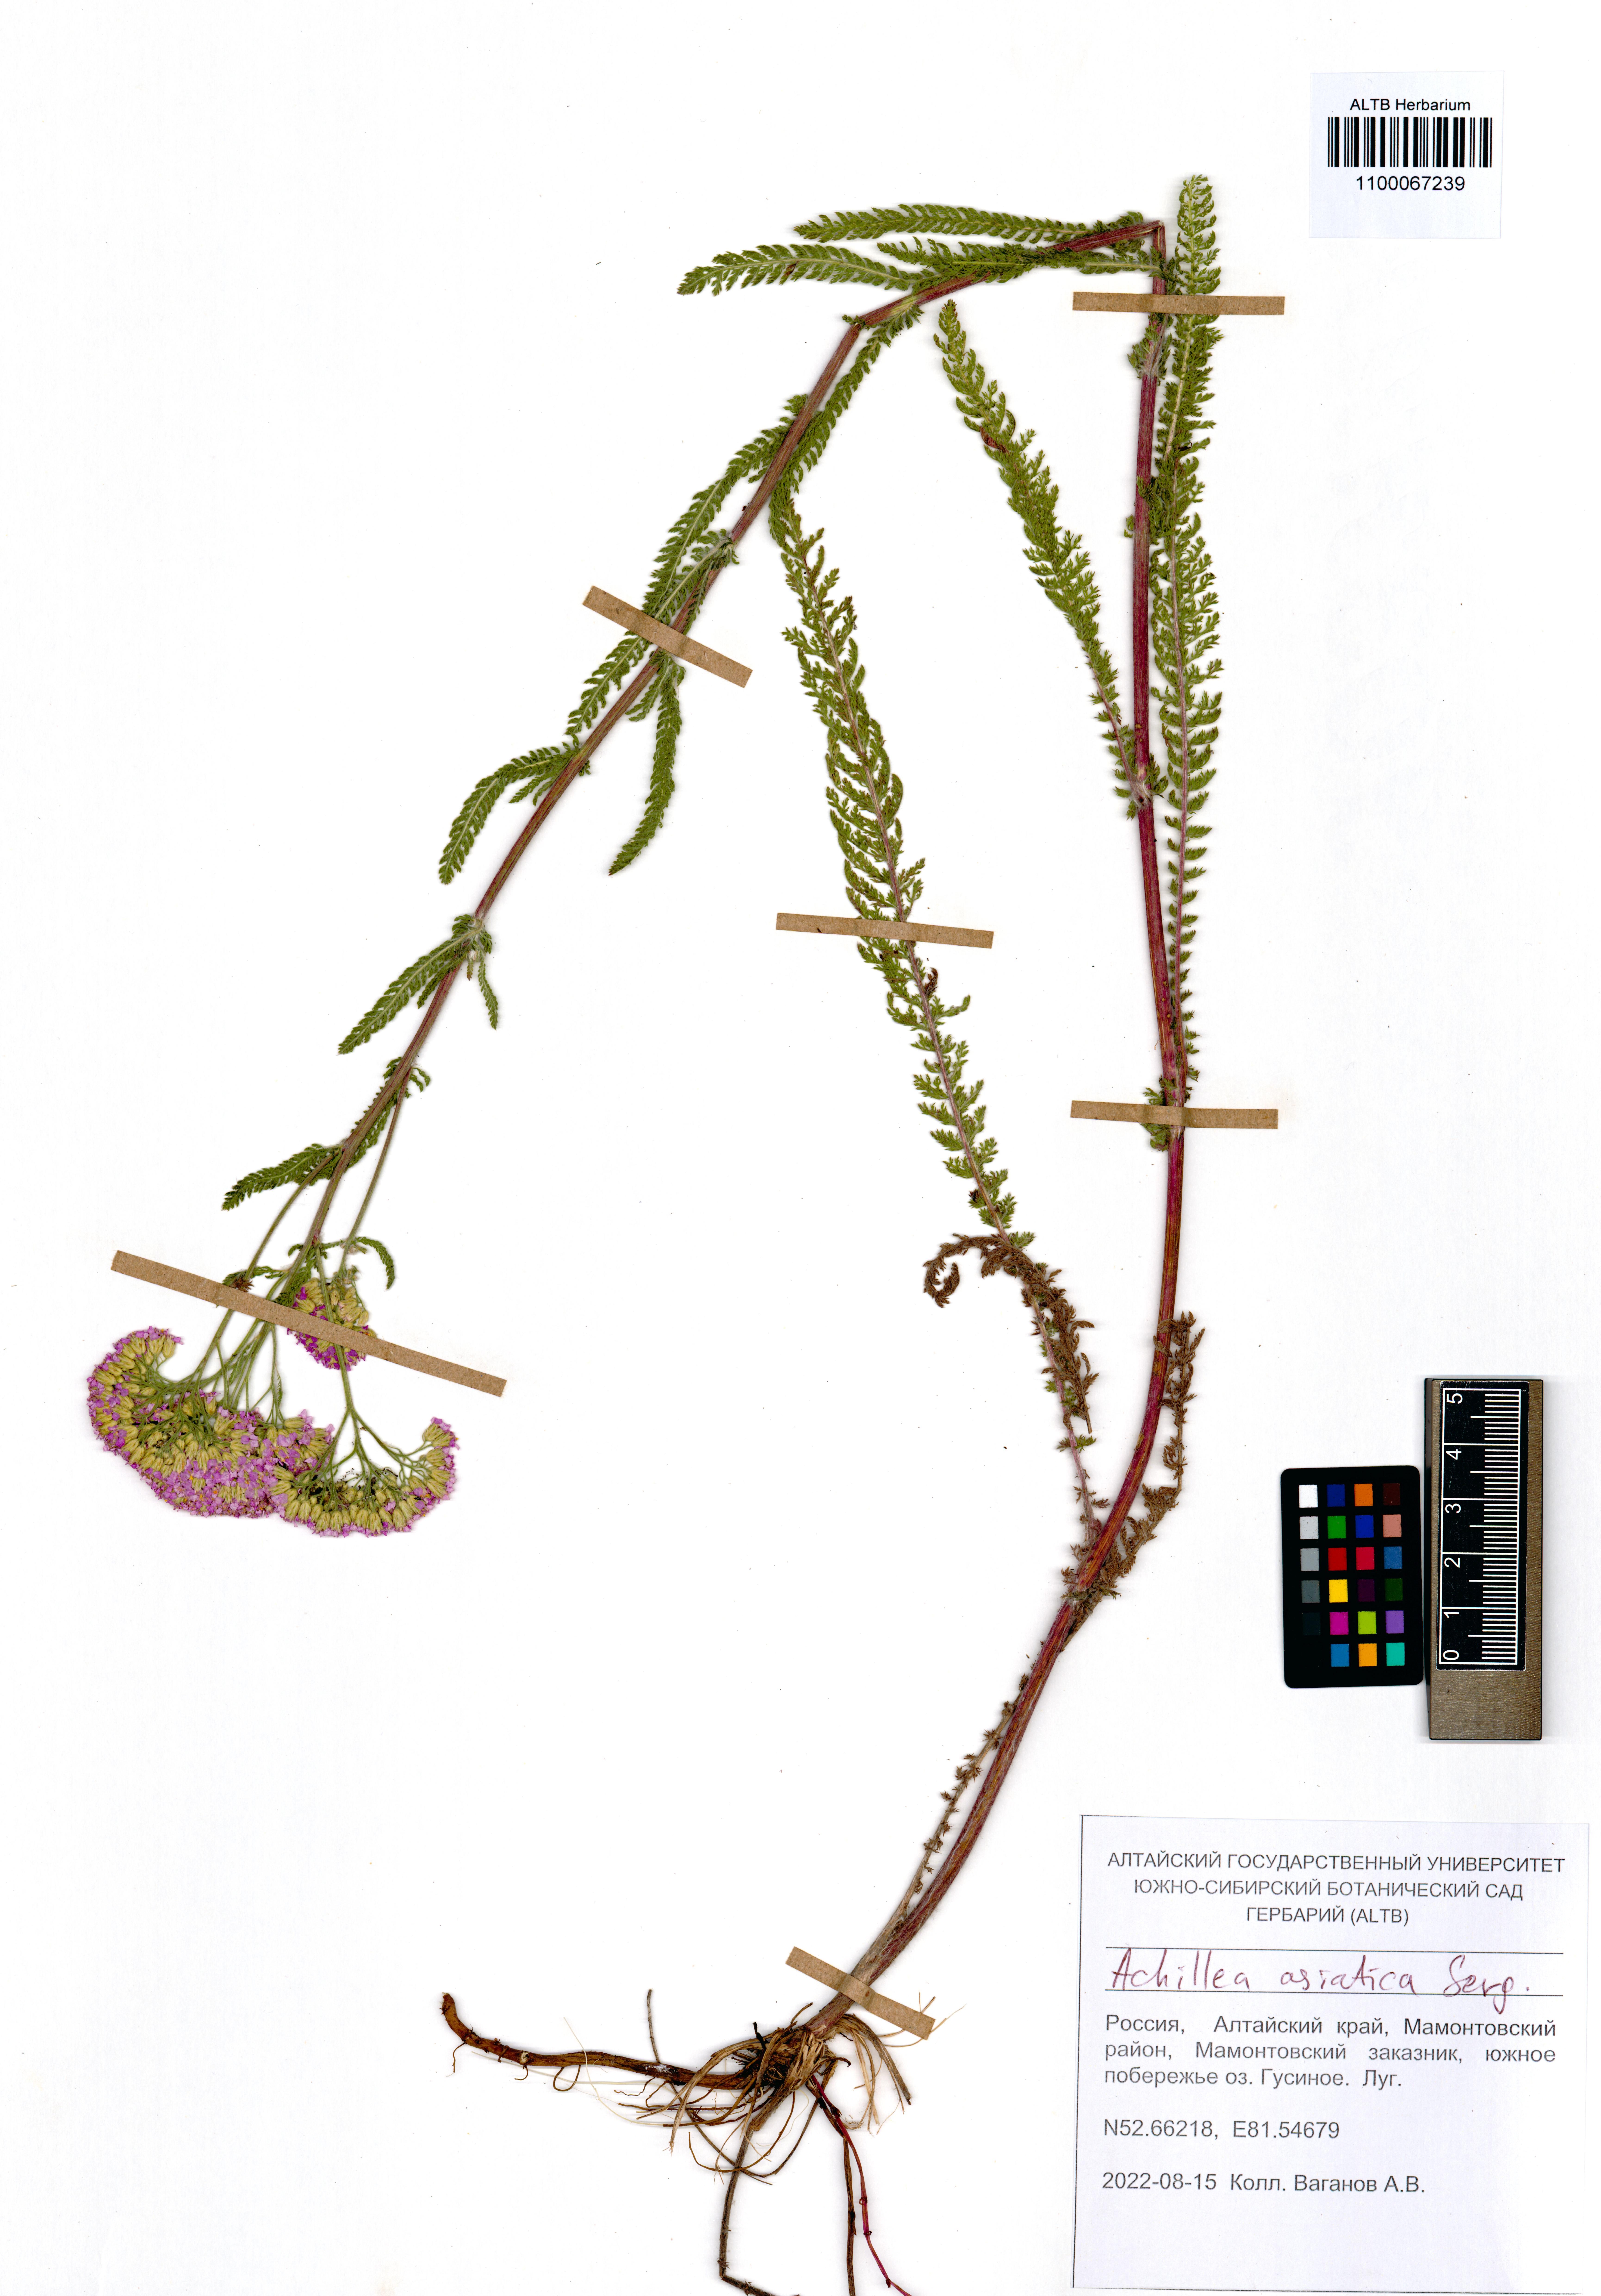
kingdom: Plantae
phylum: Tracheophyta
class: Magnoliopsida
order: Asterales
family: Asteraceae
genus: Achillea
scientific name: Achillea asiatica
